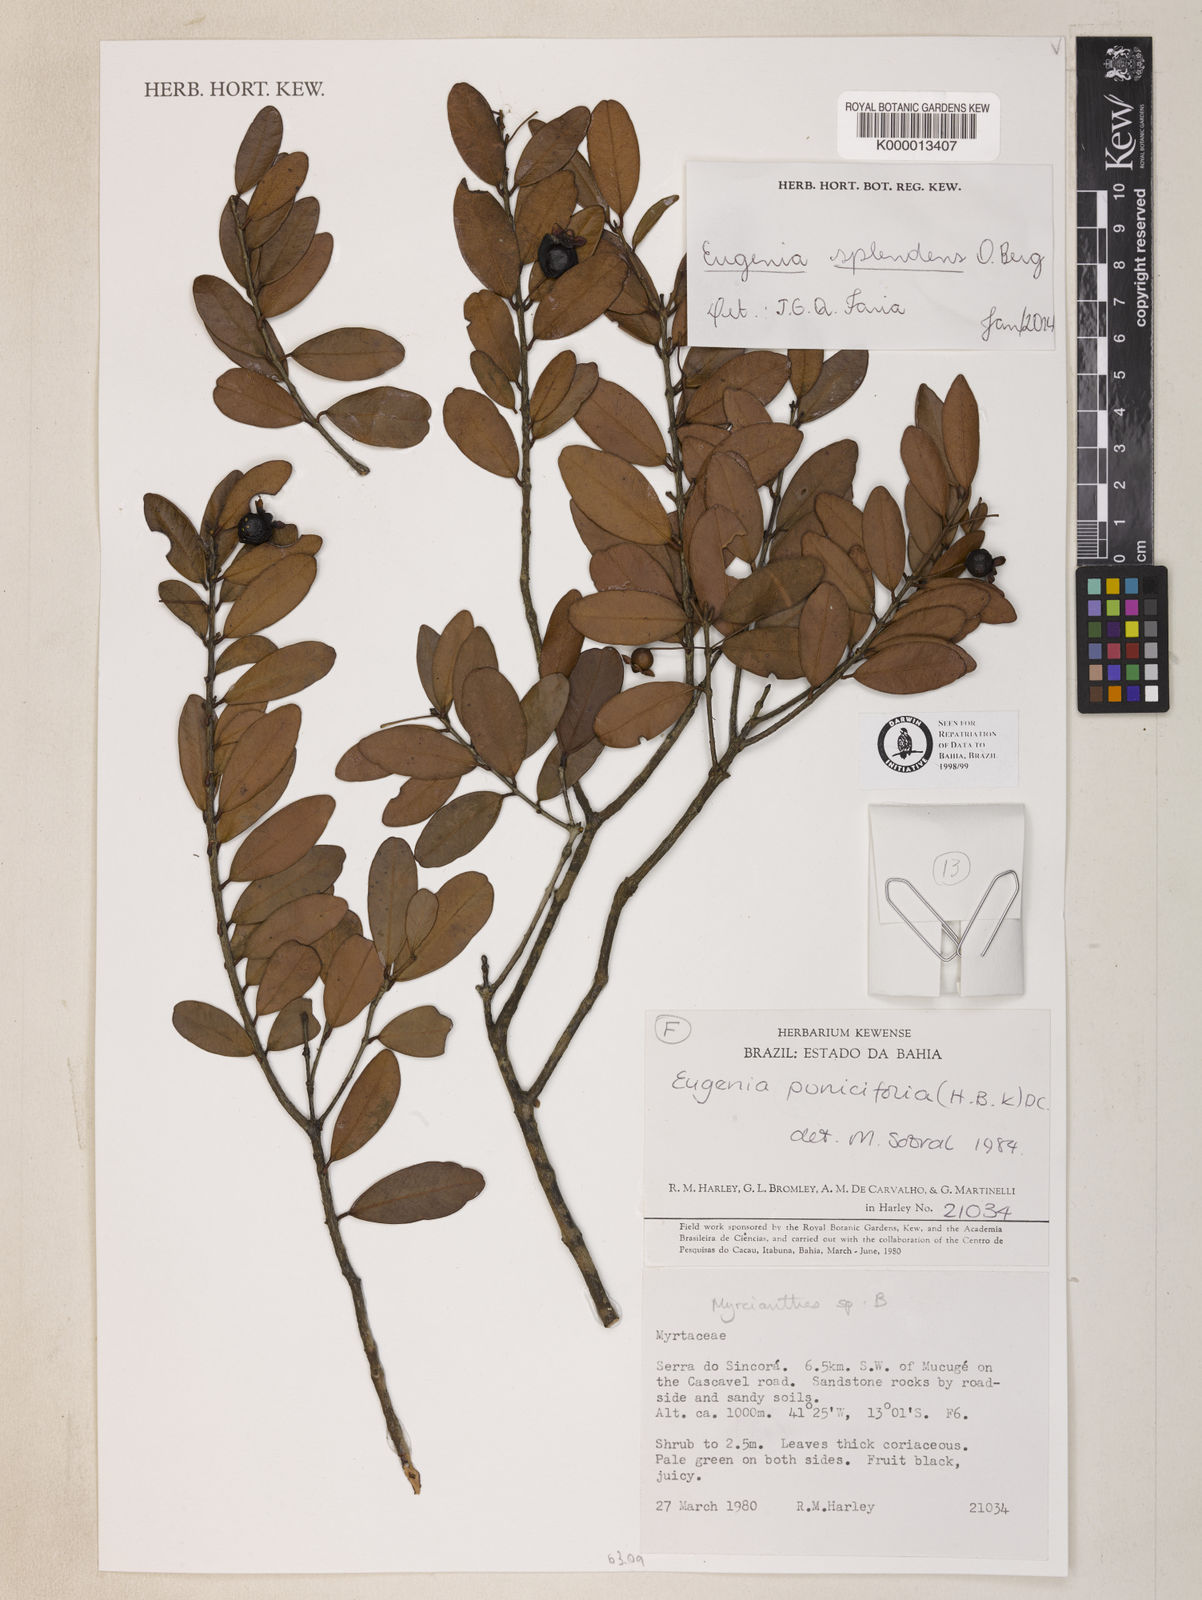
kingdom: Plantae
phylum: Tracheophyta
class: Magnoliopsida
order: Myrtales
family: Myrtaceae
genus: Eugenia
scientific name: Eugenia splendens
